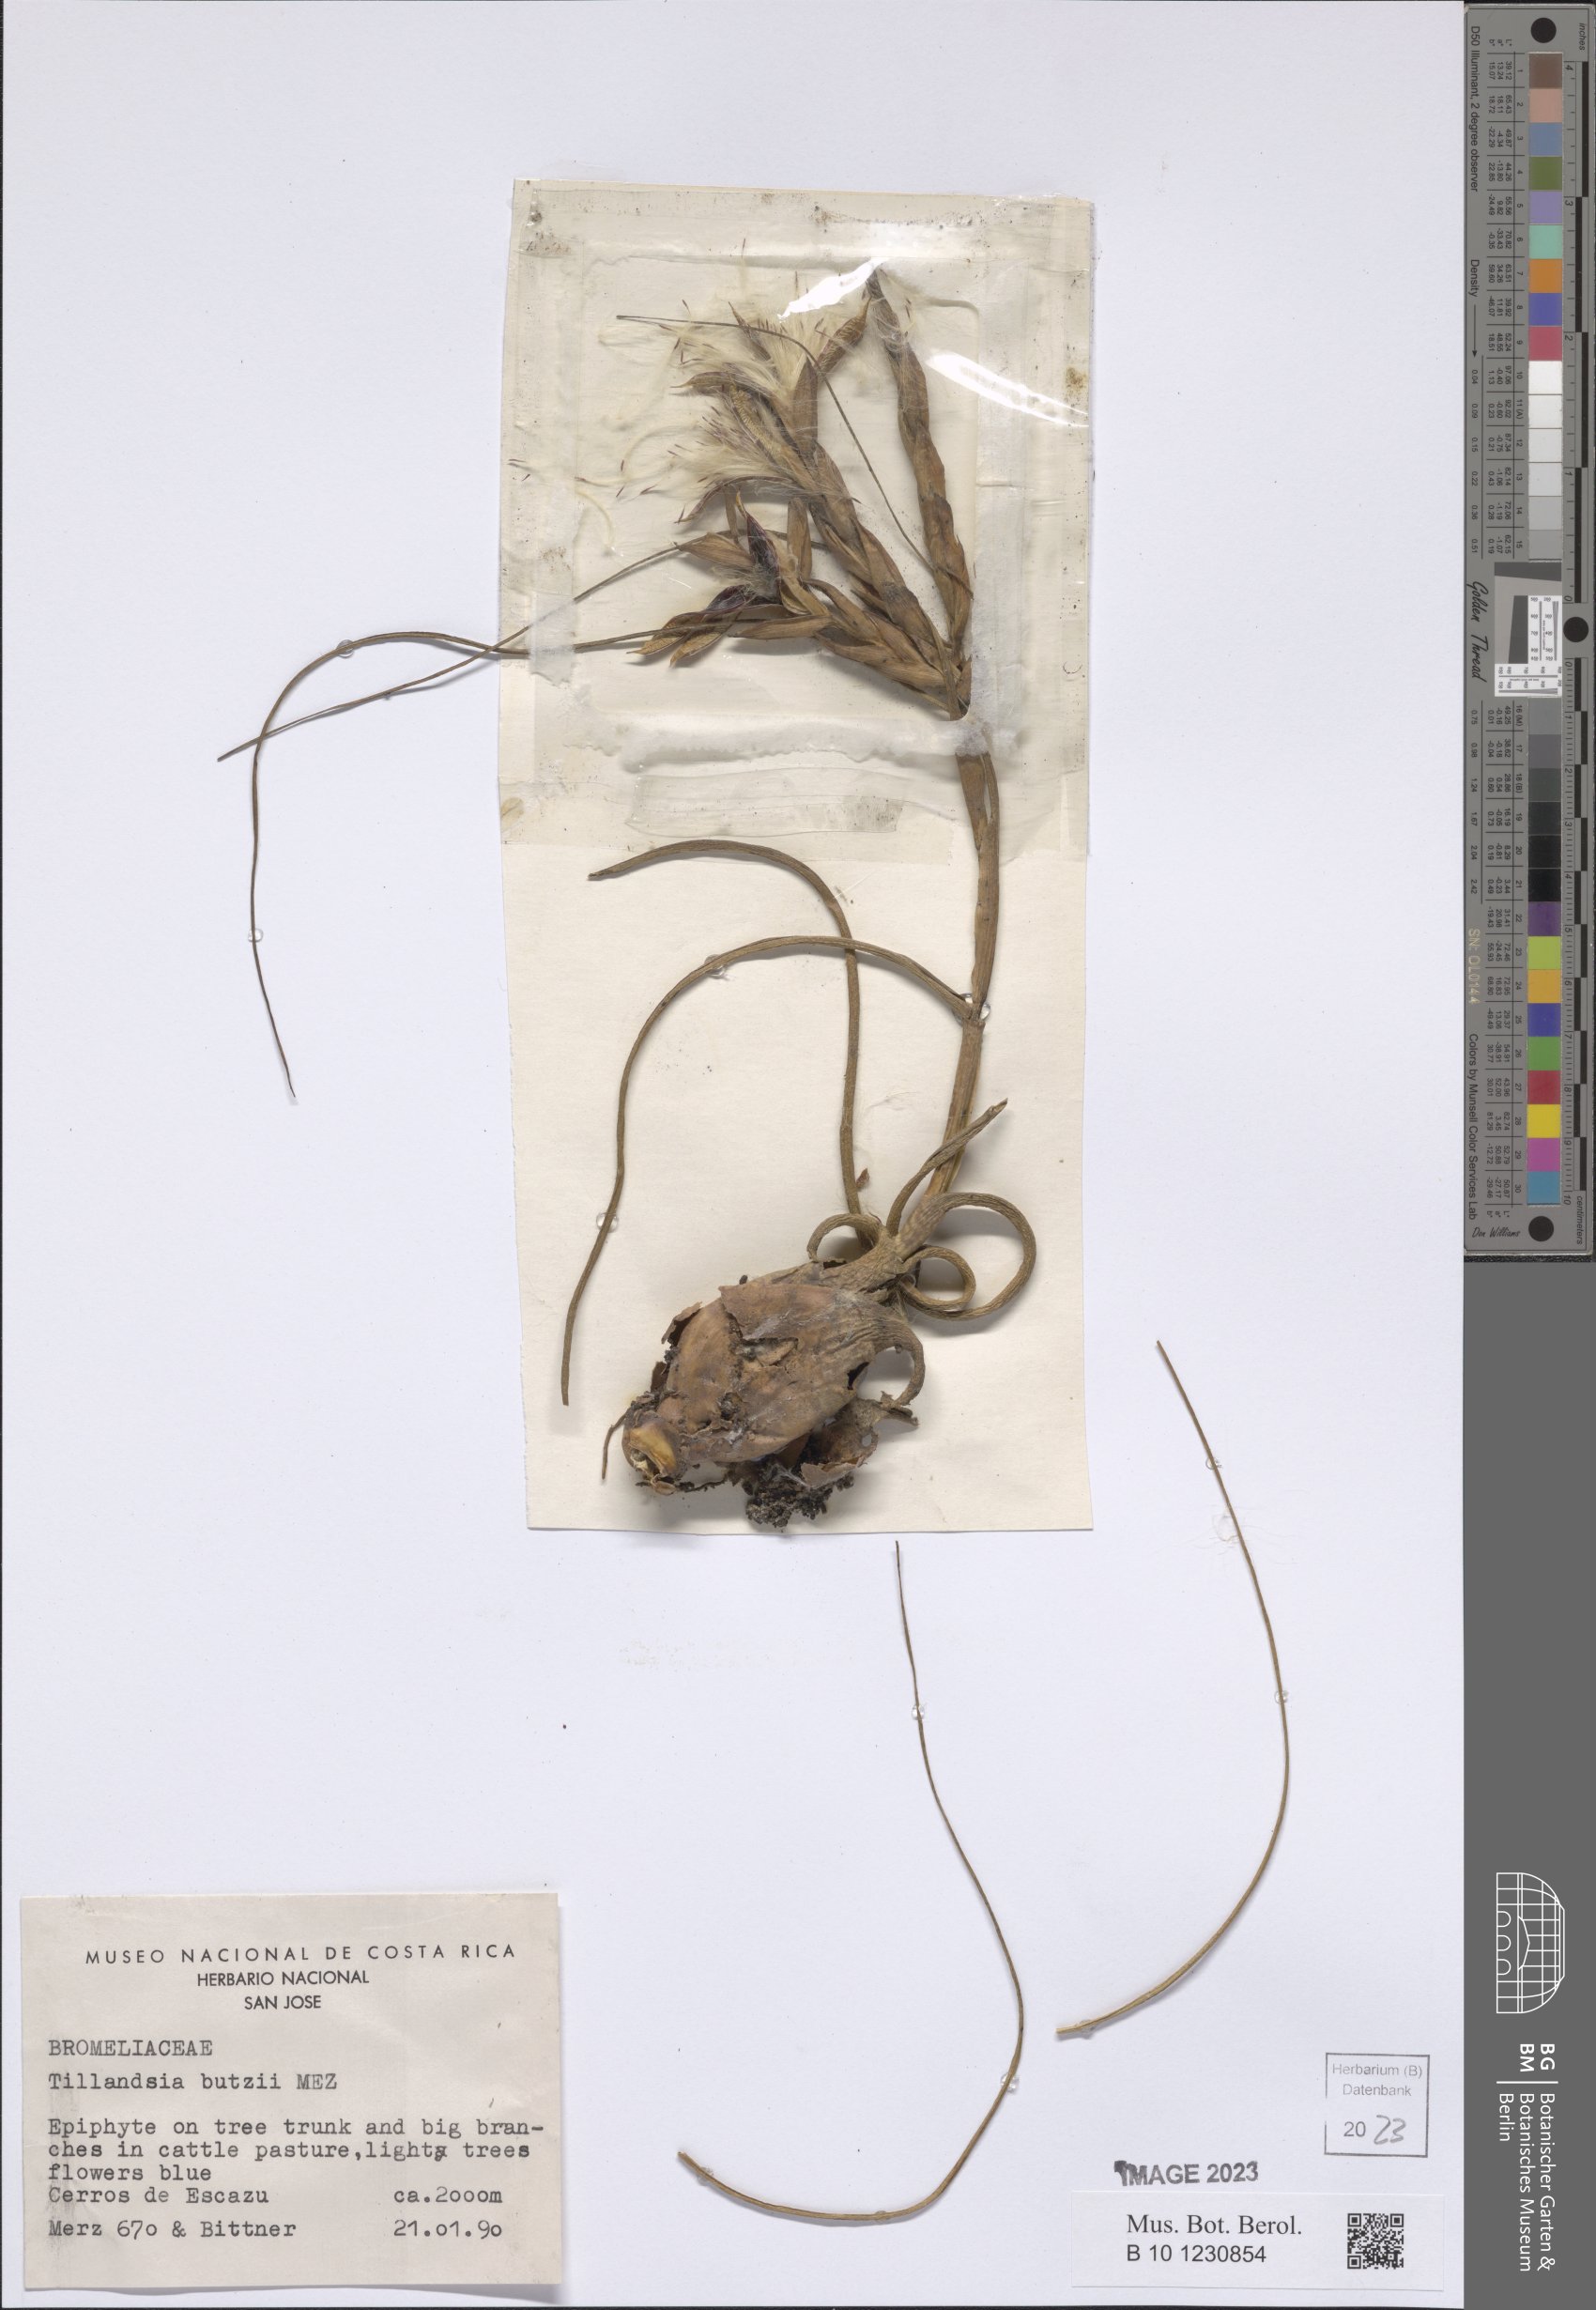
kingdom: Plantae
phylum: Tracheophyta
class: Liliopsida
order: Poales
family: Bromeliaceae
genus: Tillandsia
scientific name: Tillandsia butzii
